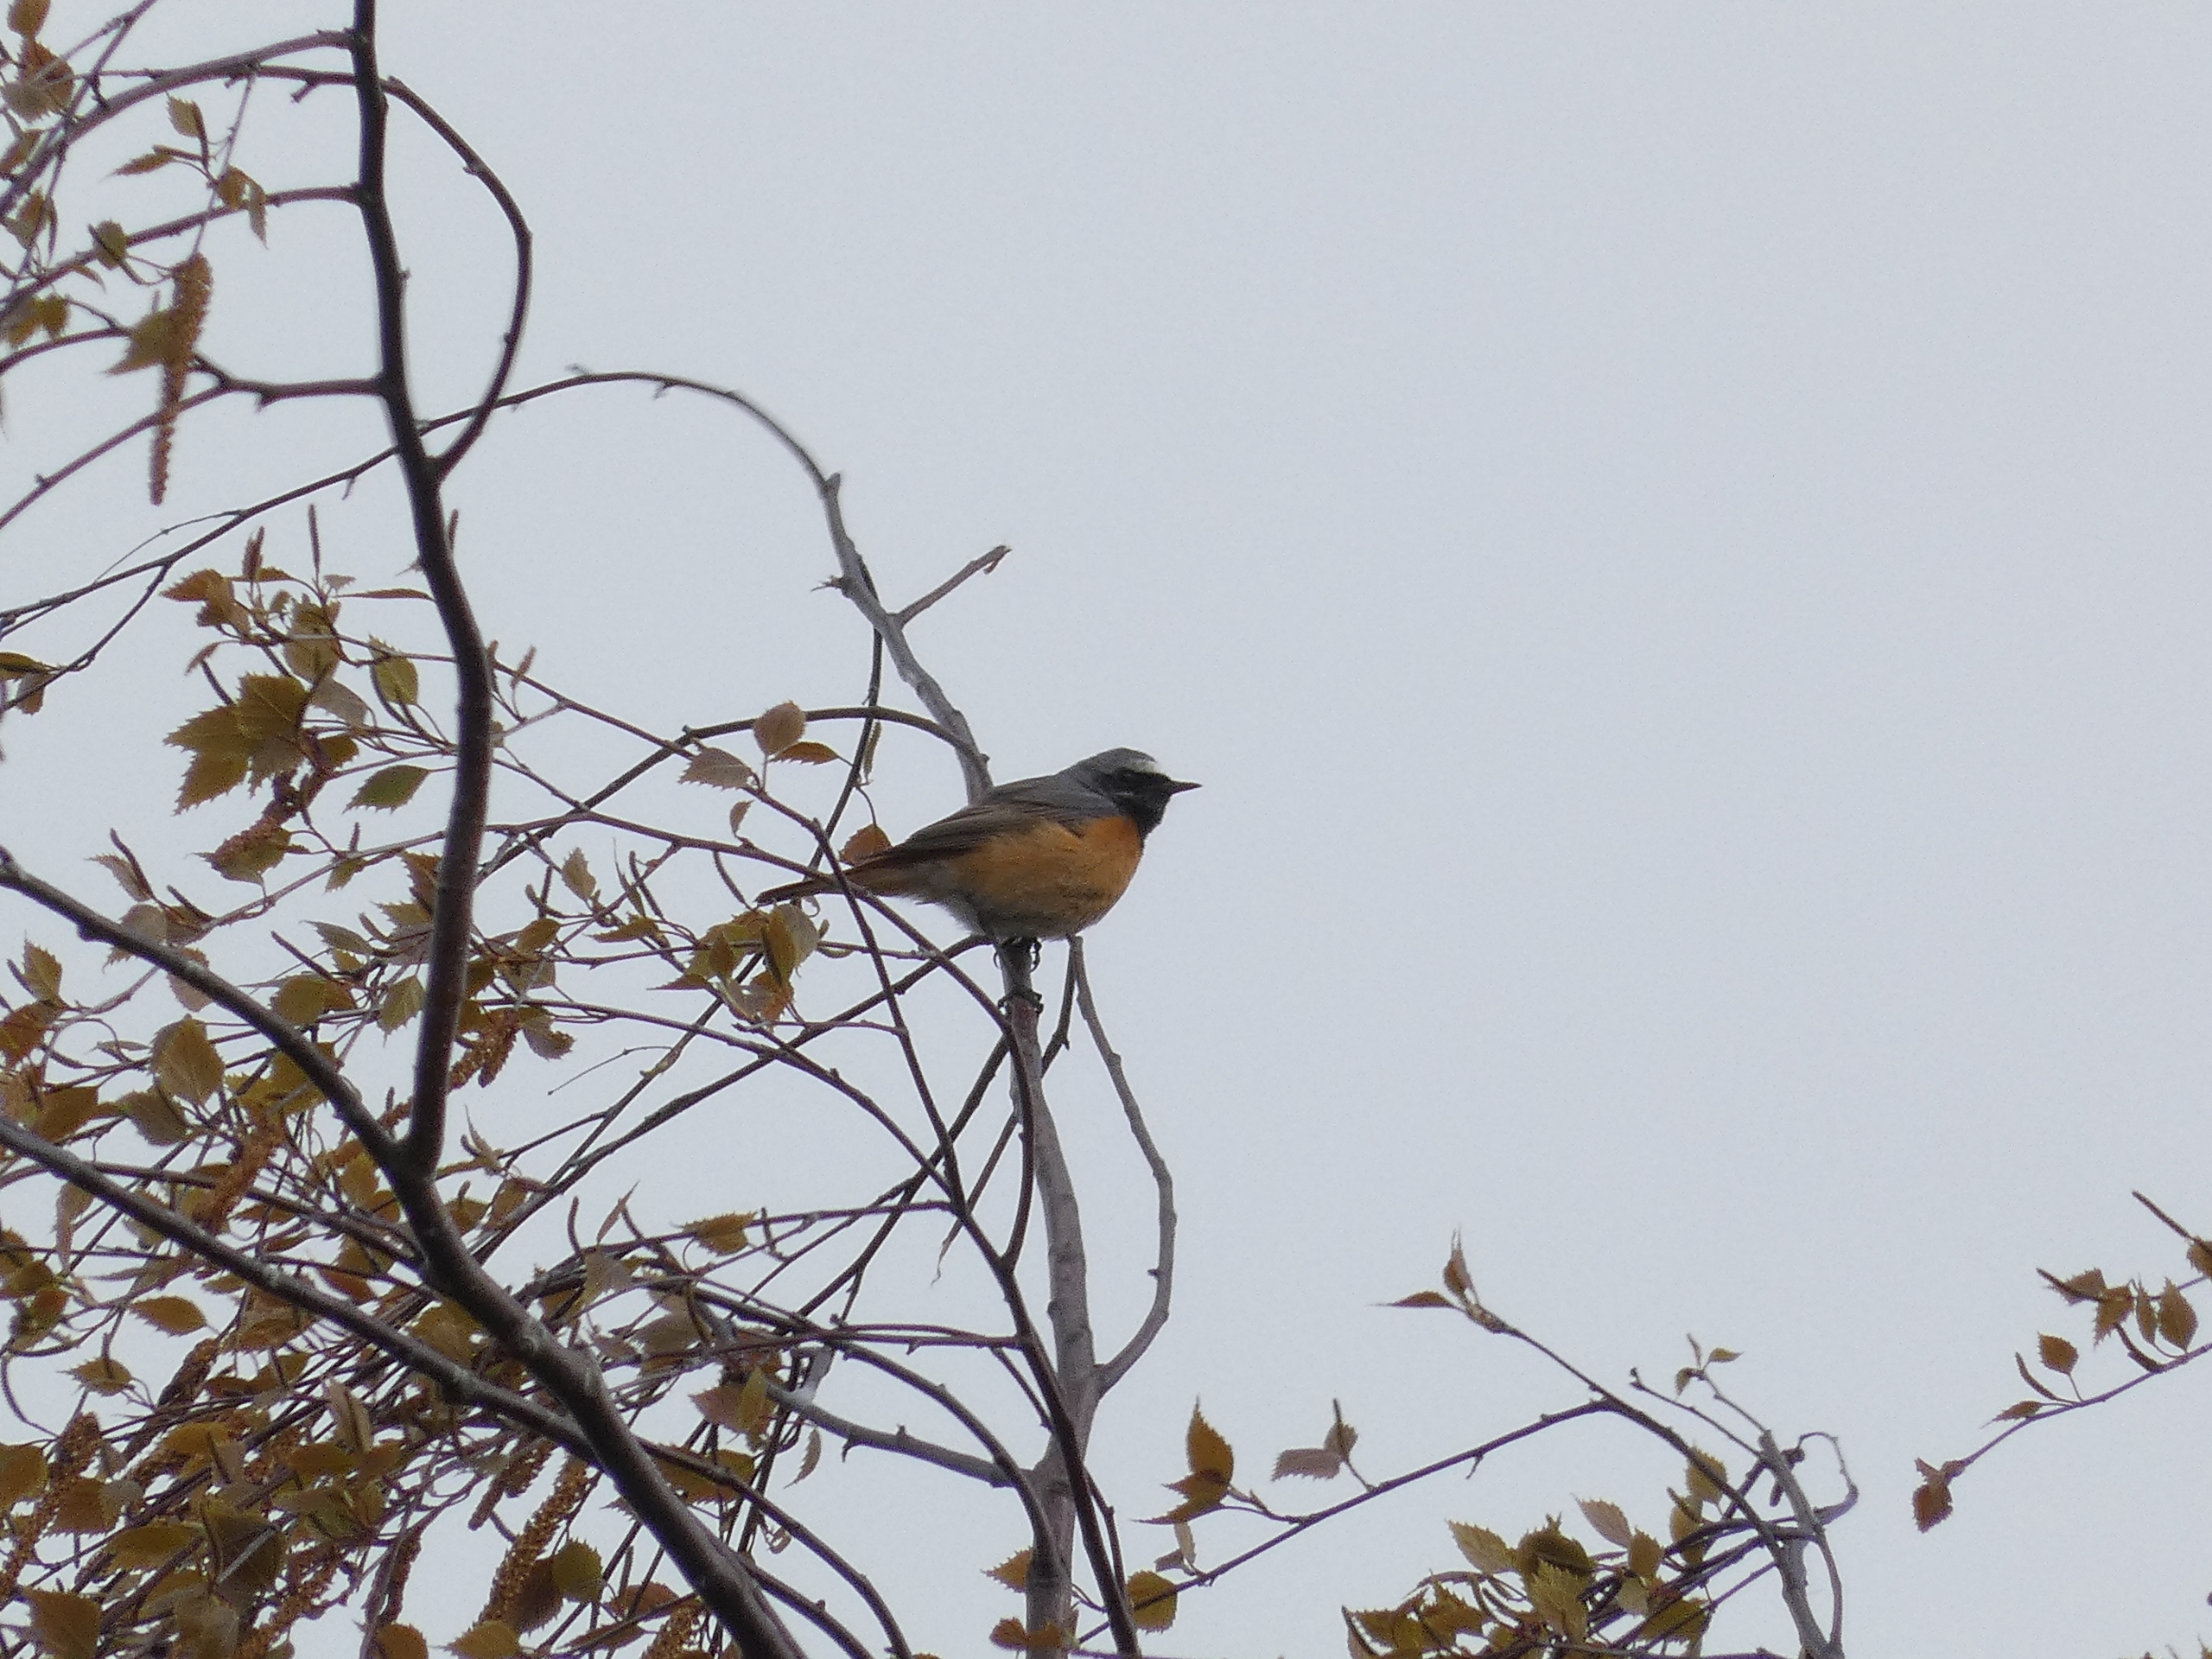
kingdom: Animalia
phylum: Chordata
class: Aves
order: Passeriformes
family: Muscicapidae
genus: Phoenicurus
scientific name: Phoenicurus phoenicurus
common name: Rødstjert
